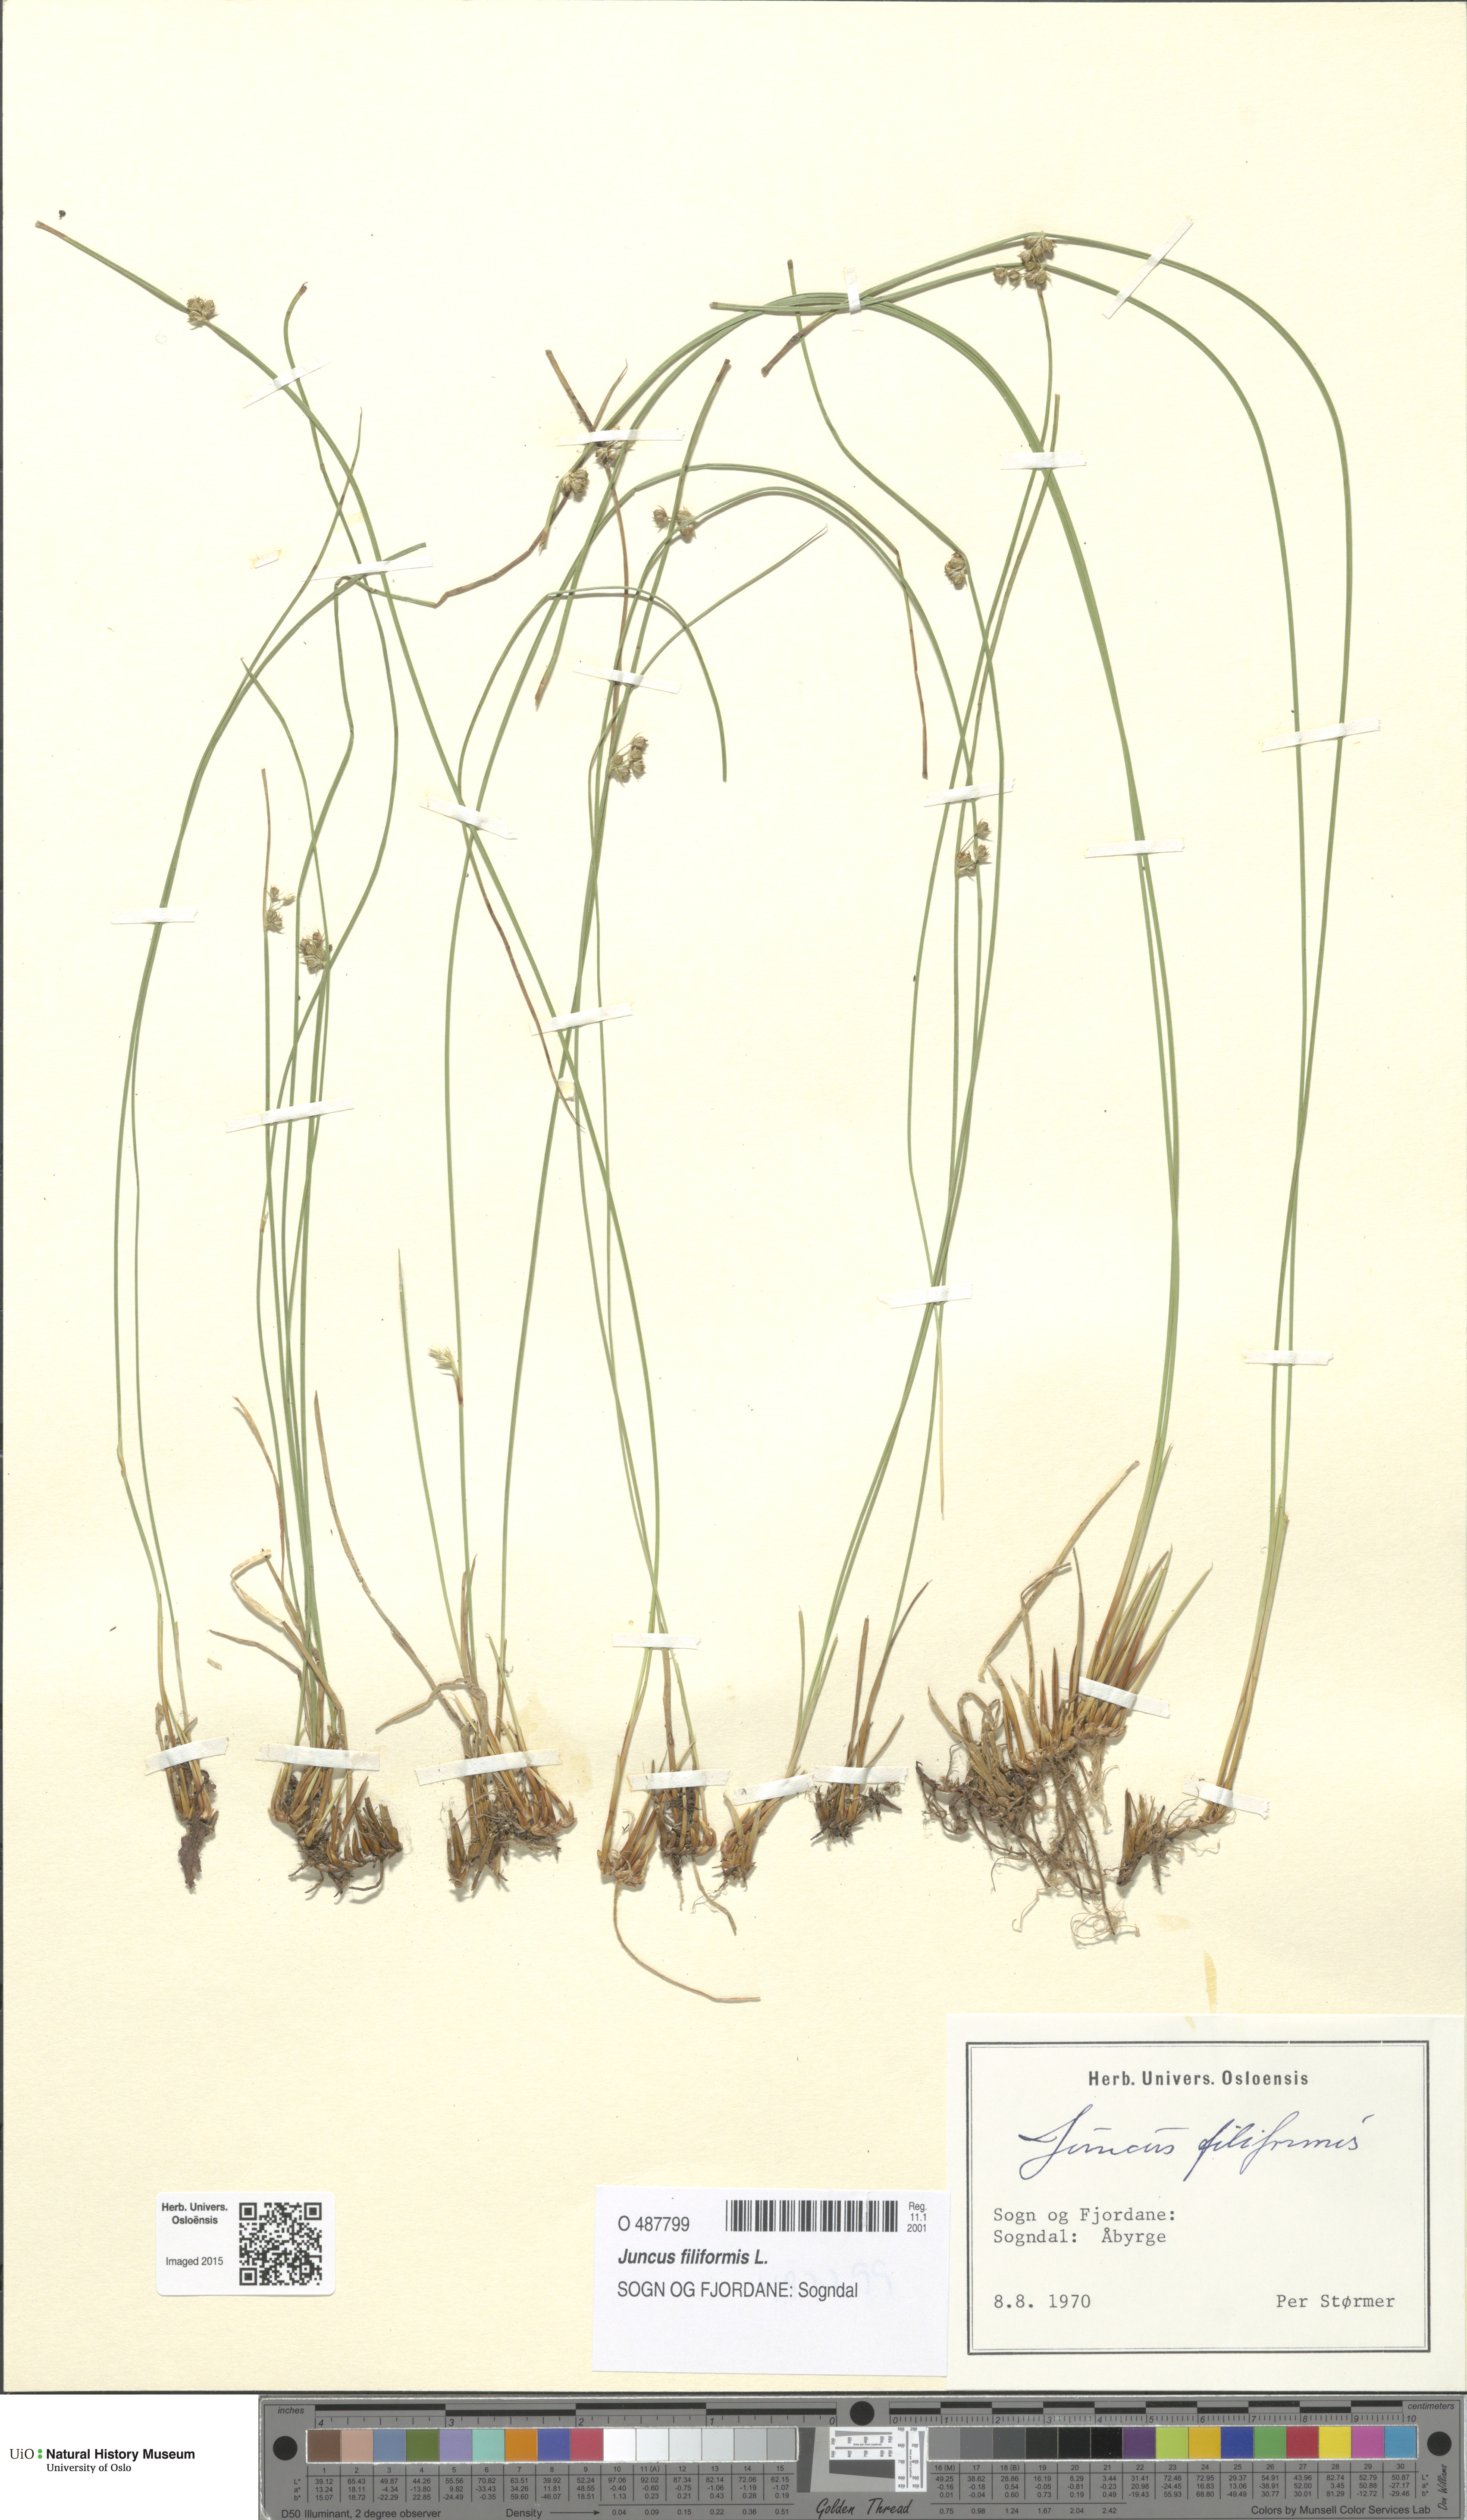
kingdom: Plantae
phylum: Tracheophyta
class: Liliopsida
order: Poales
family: Juncaceae
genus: Juncus
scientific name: Juncus filiformis
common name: Thread rush
